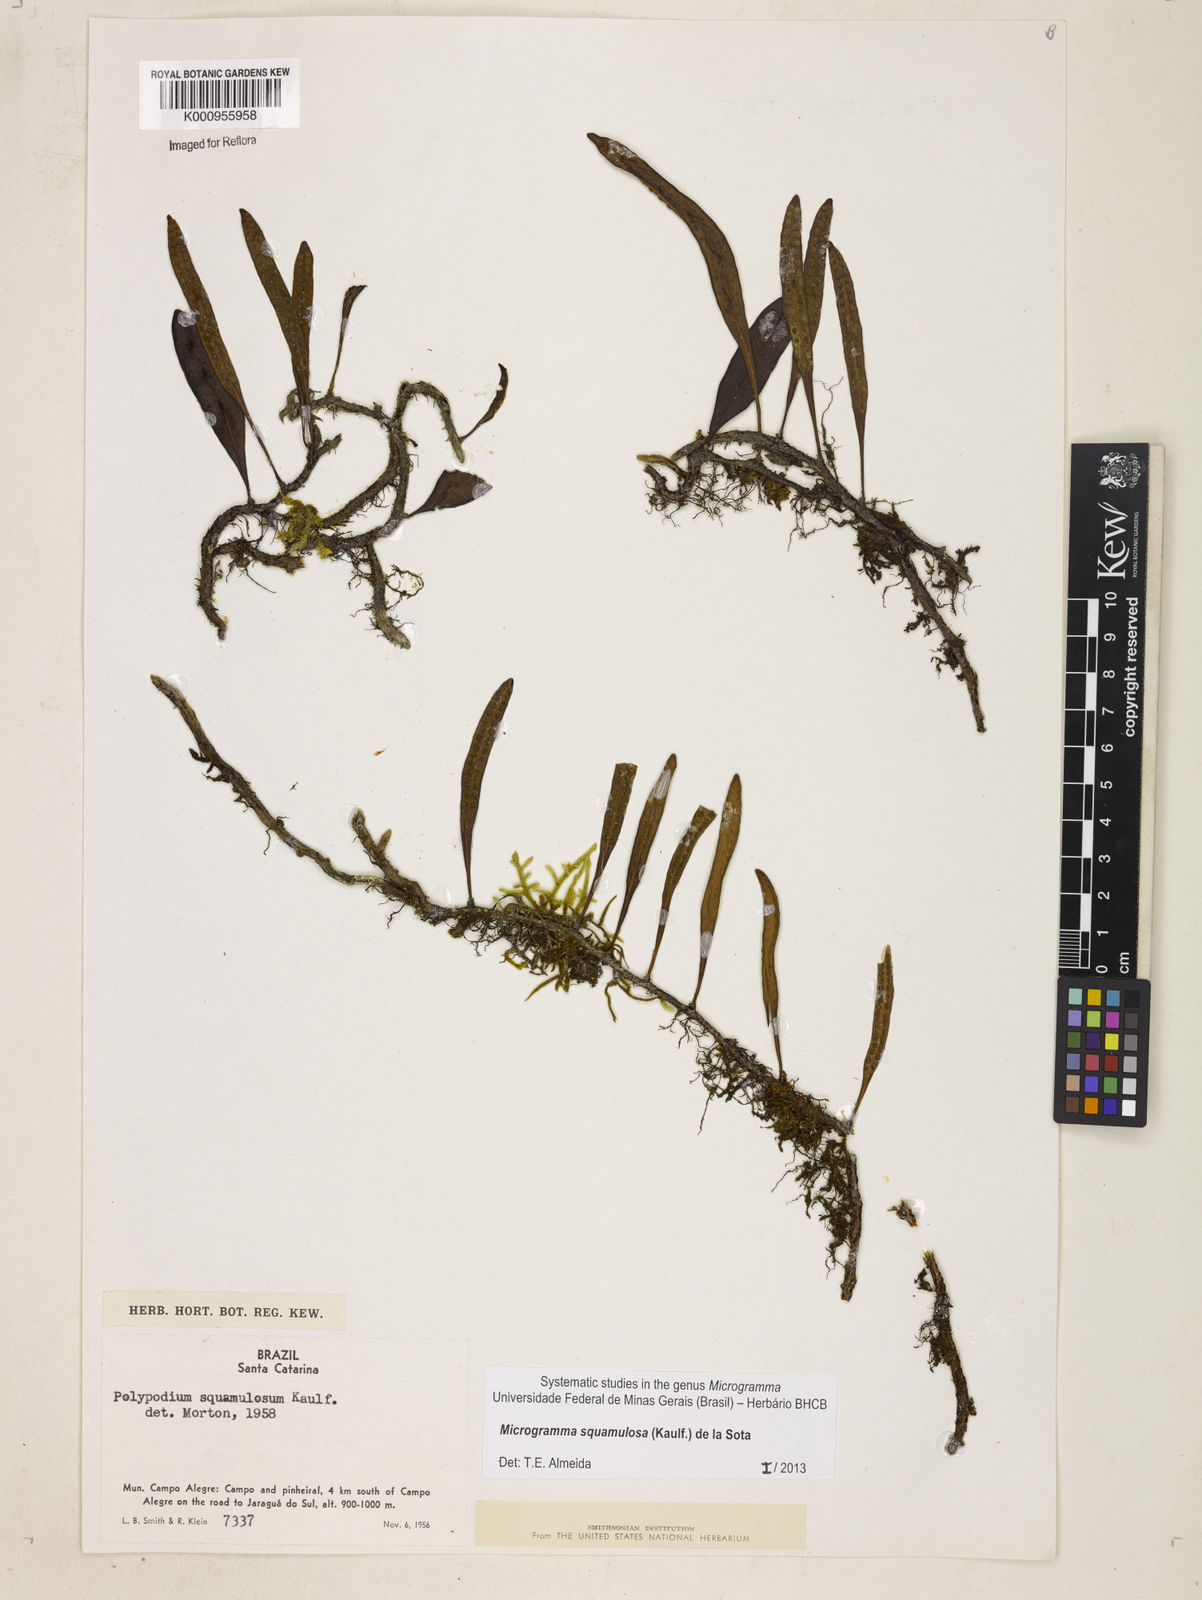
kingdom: Plantae
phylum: Tracheophyta
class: Polypodiopsida
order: Polypodiales
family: Polypodiaceae
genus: Microgramma
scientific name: Microgramma squamulosa
